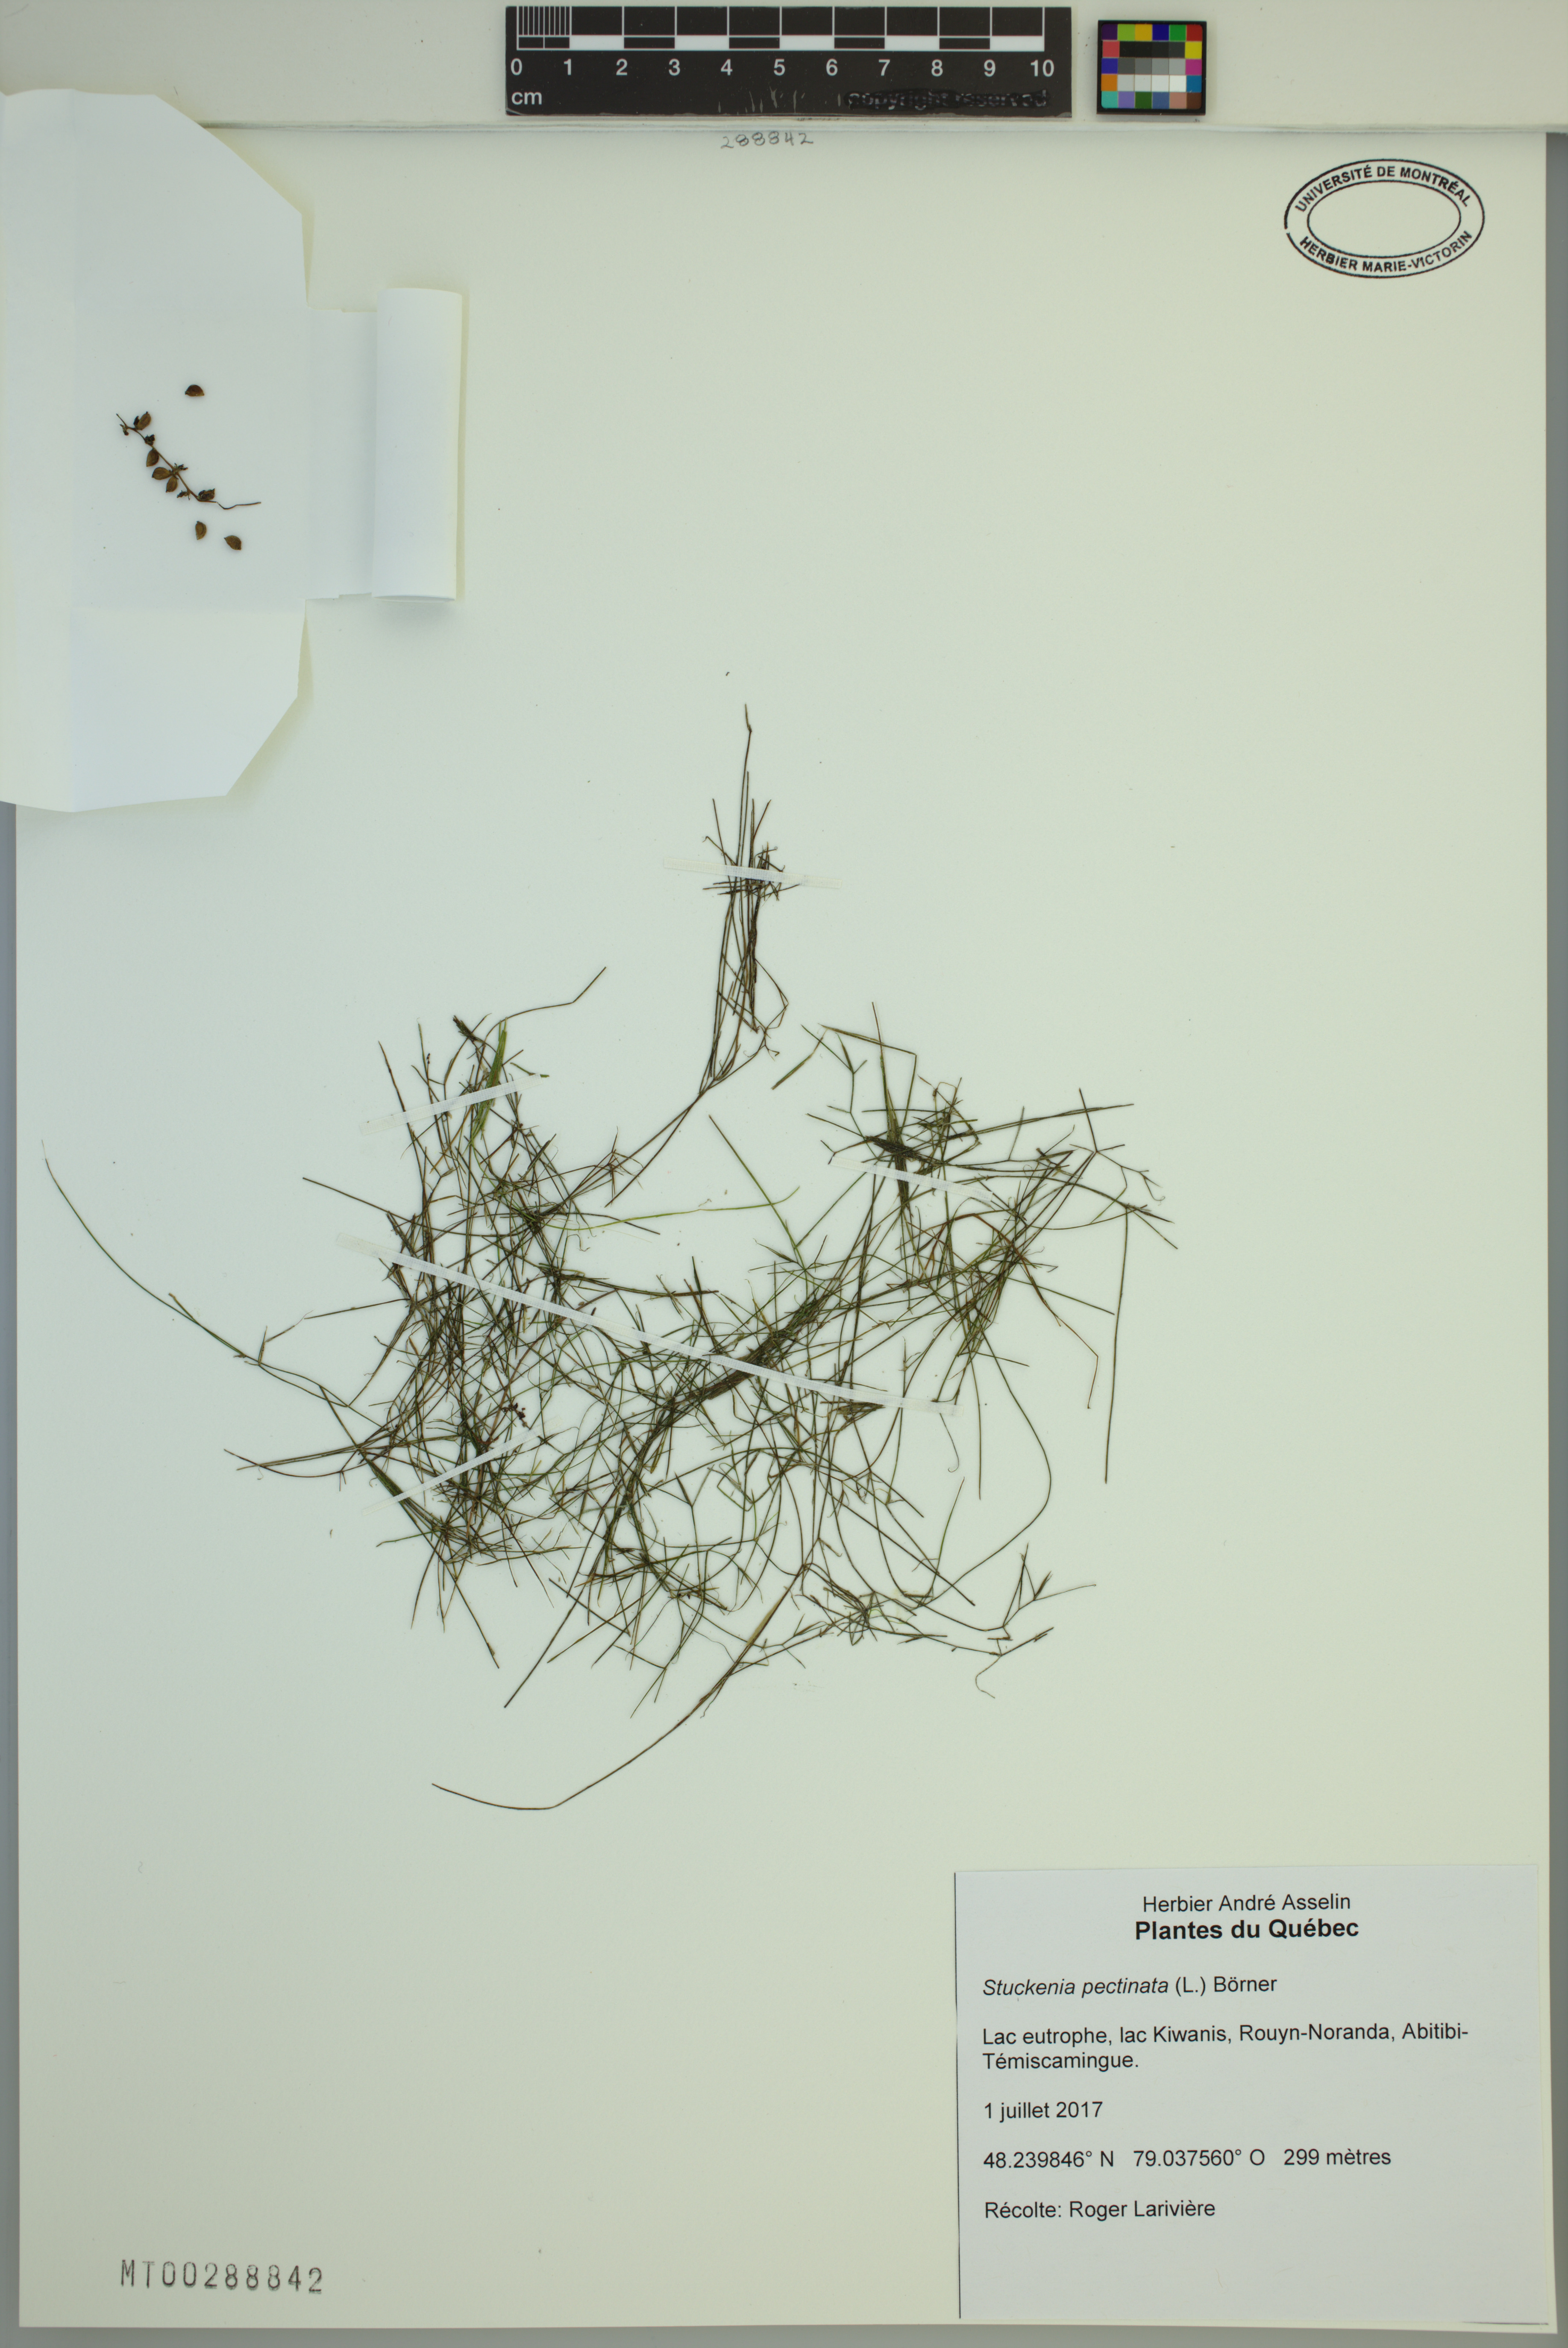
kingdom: Plantae
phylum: Tracheophyta
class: Liliopsida
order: Alismatales
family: Potamogetonaceae
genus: Stuckenia
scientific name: Stuckenia pectinata
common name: Sago pondweed
